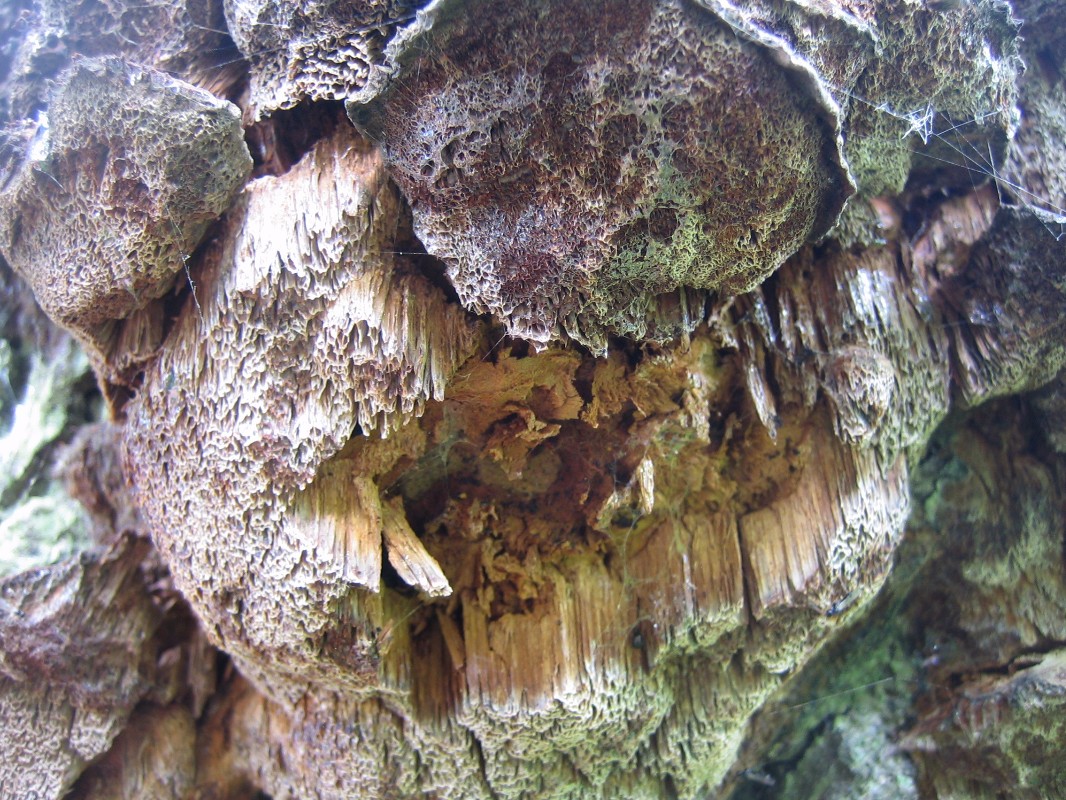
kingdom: Fungi
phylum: Basidiomycota
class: Agaricomycetes
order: Hymenochaetales
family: Hymenochaetaceae
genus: Xanthoporia
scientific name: Xanthoporia radiata
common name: elle-spejlporesvamp
